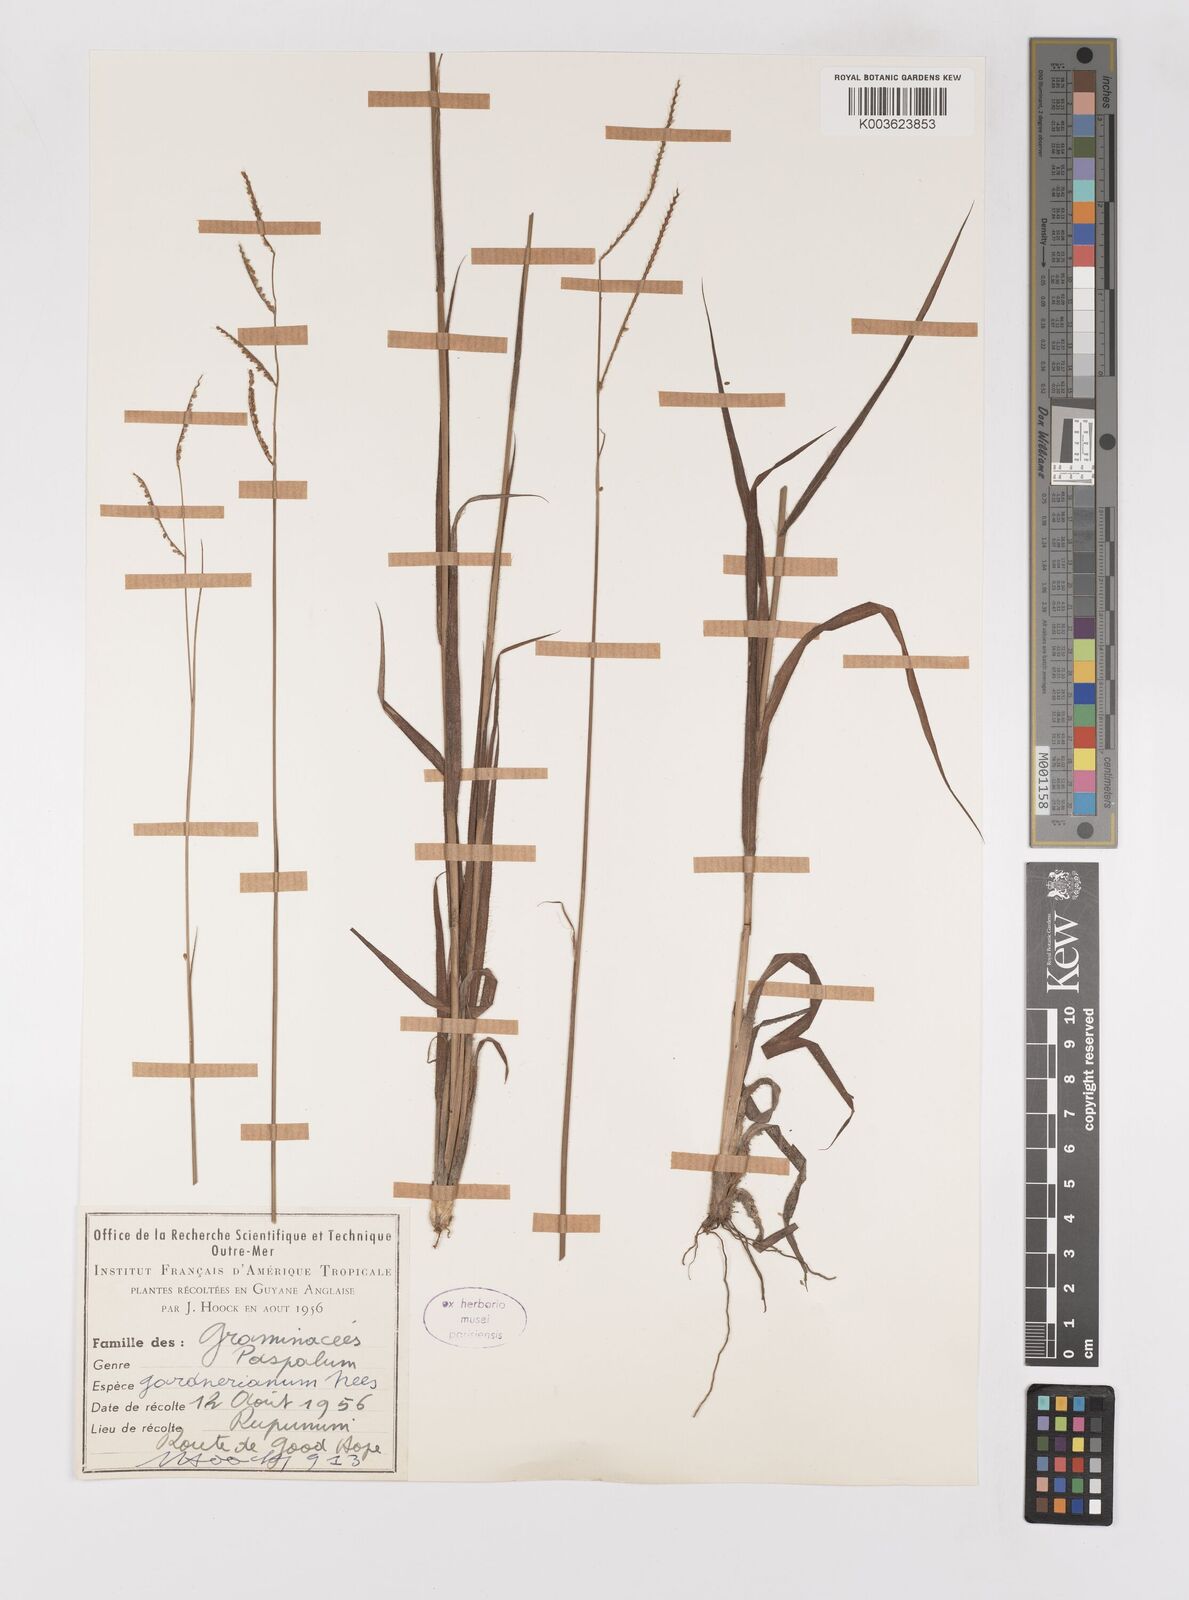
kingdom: Plantae
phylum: Tracheophyta
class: Liliopsida
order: Poales
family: Poaceae
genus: Paspalum
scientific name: Paspalum gardnerianum
